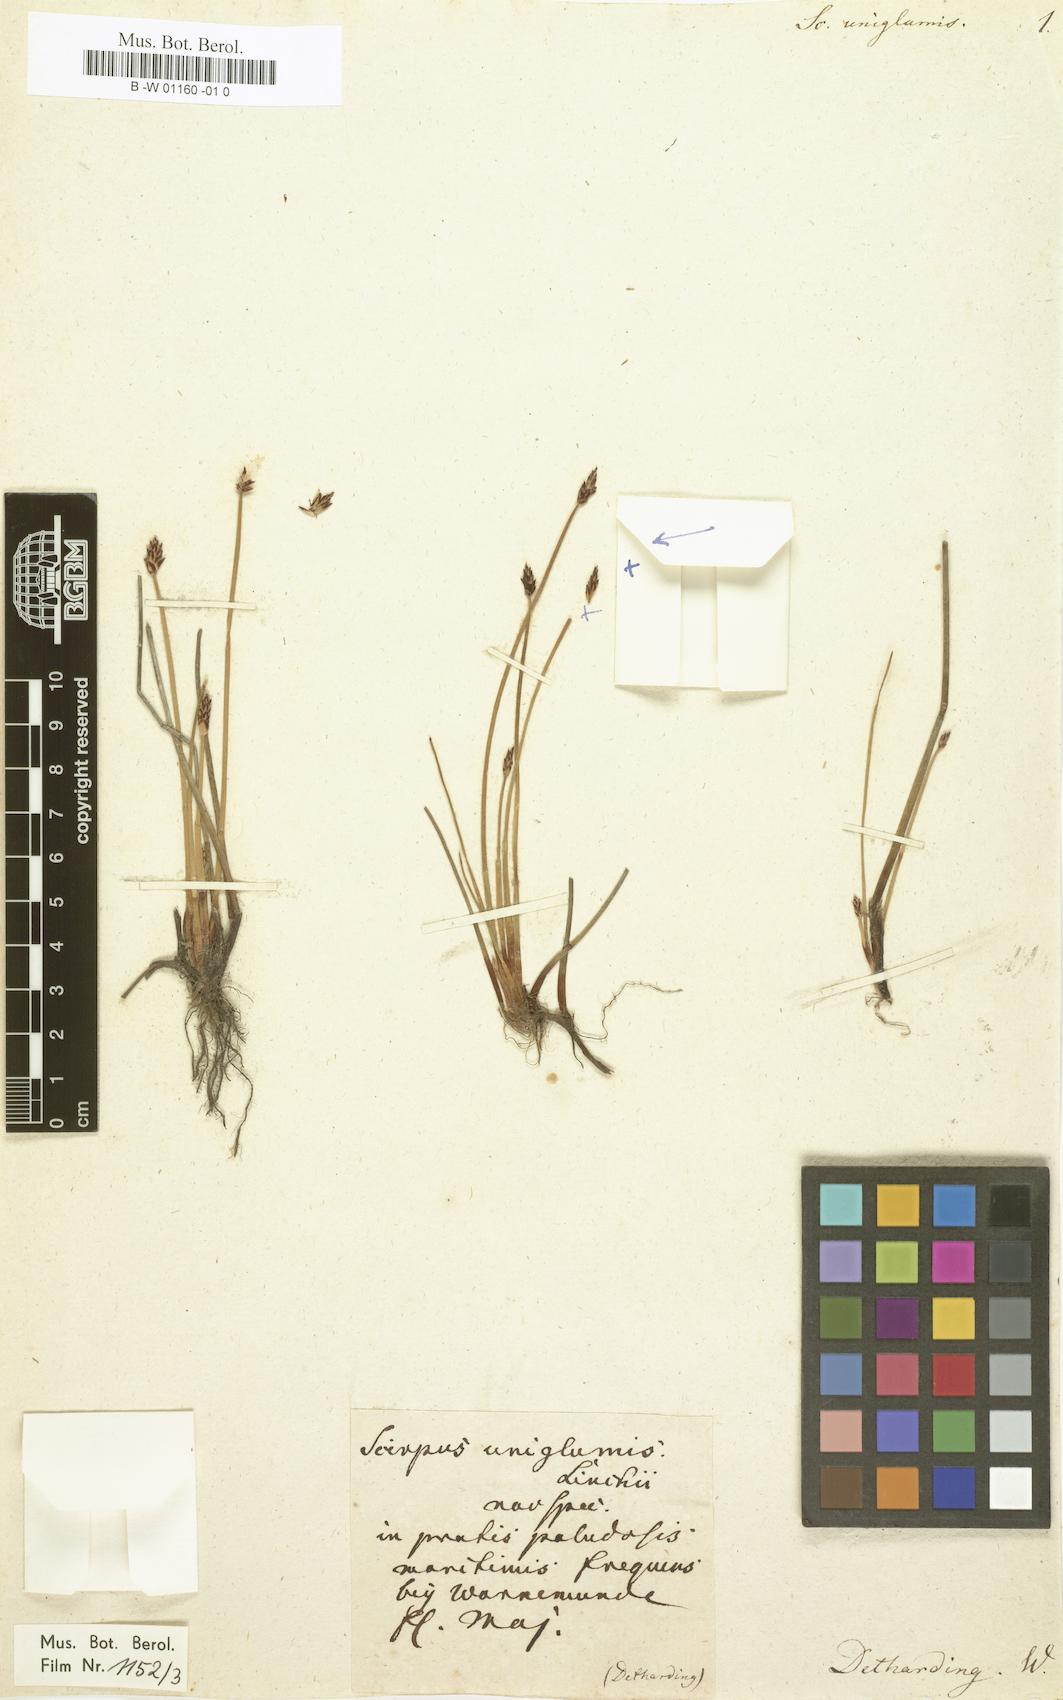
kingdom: Plantae
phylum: Tracheophyta
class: Liliopsida
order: Poales
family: Cyperaceae
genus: Eleocharis
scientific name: Eleocharis uniglumis
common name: Slender spike-rush
